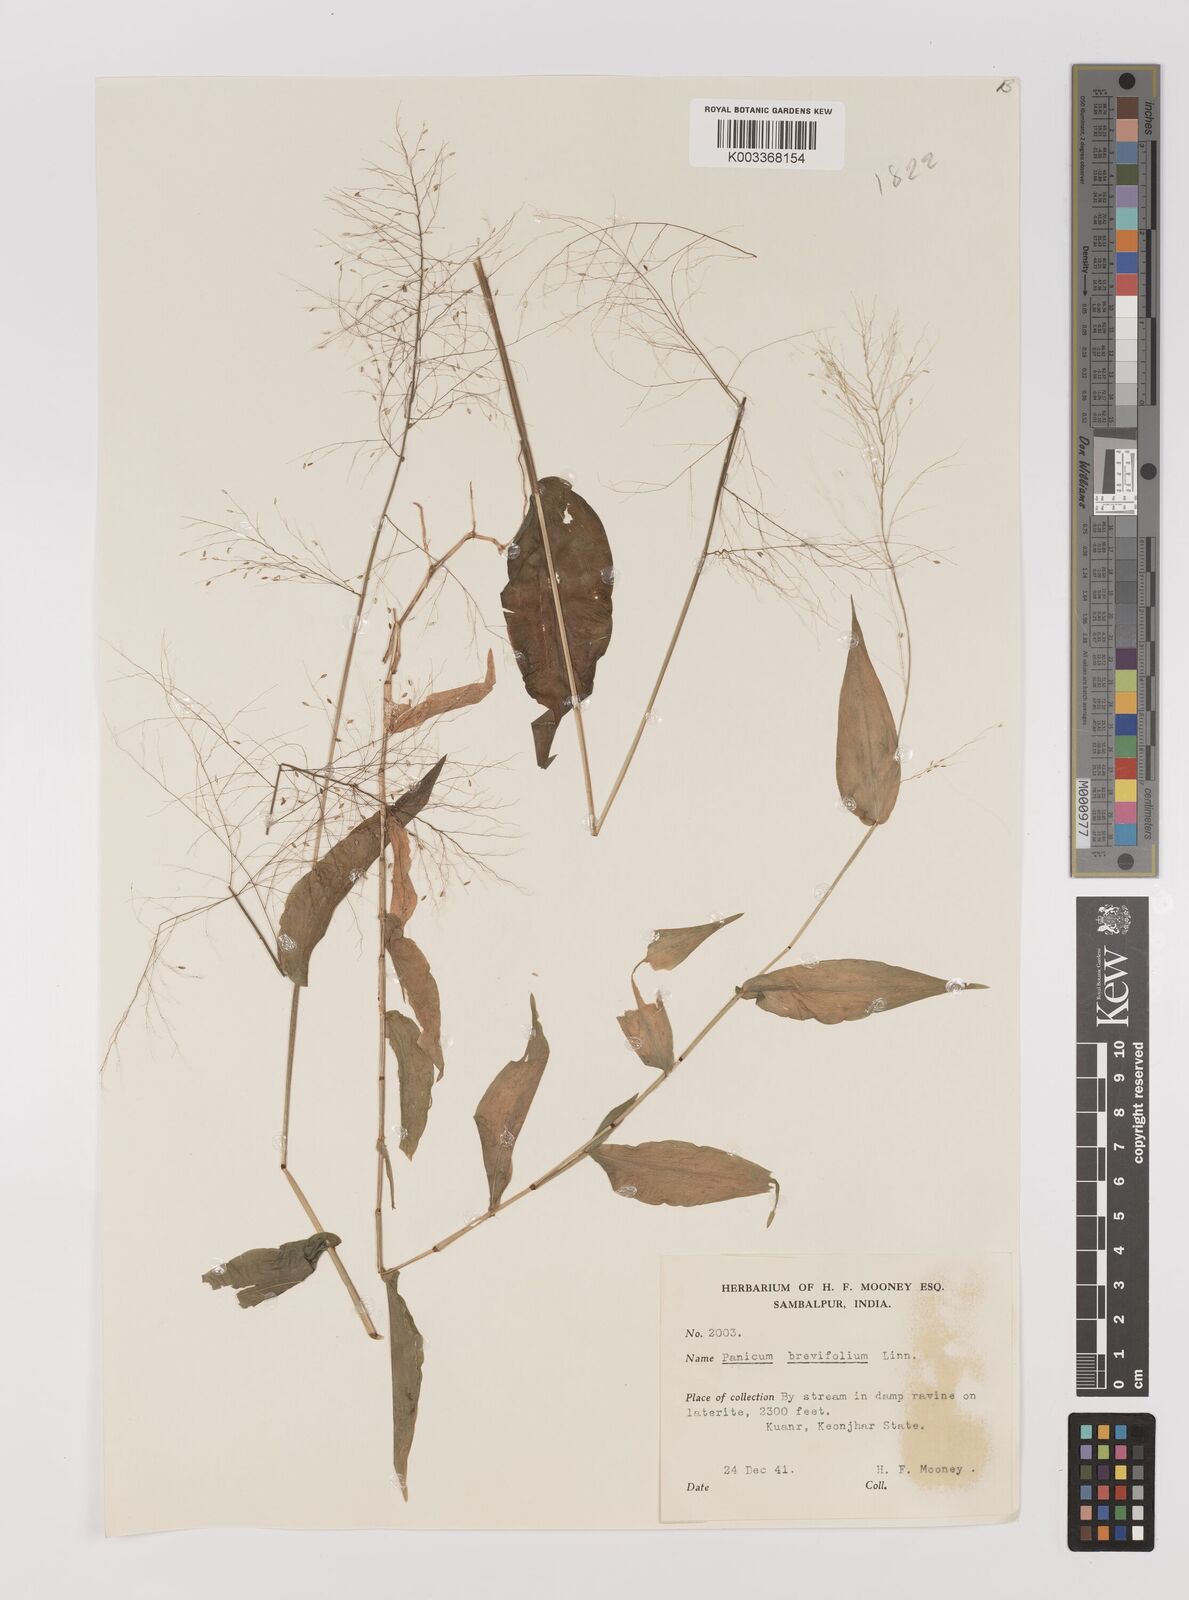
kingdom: Plantae
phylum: Tracheophyta
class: Liliopsida
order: Poales
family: Poaceae
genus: Panicum
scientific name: Panicum brevifolium
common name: Shortleaf panic grass
